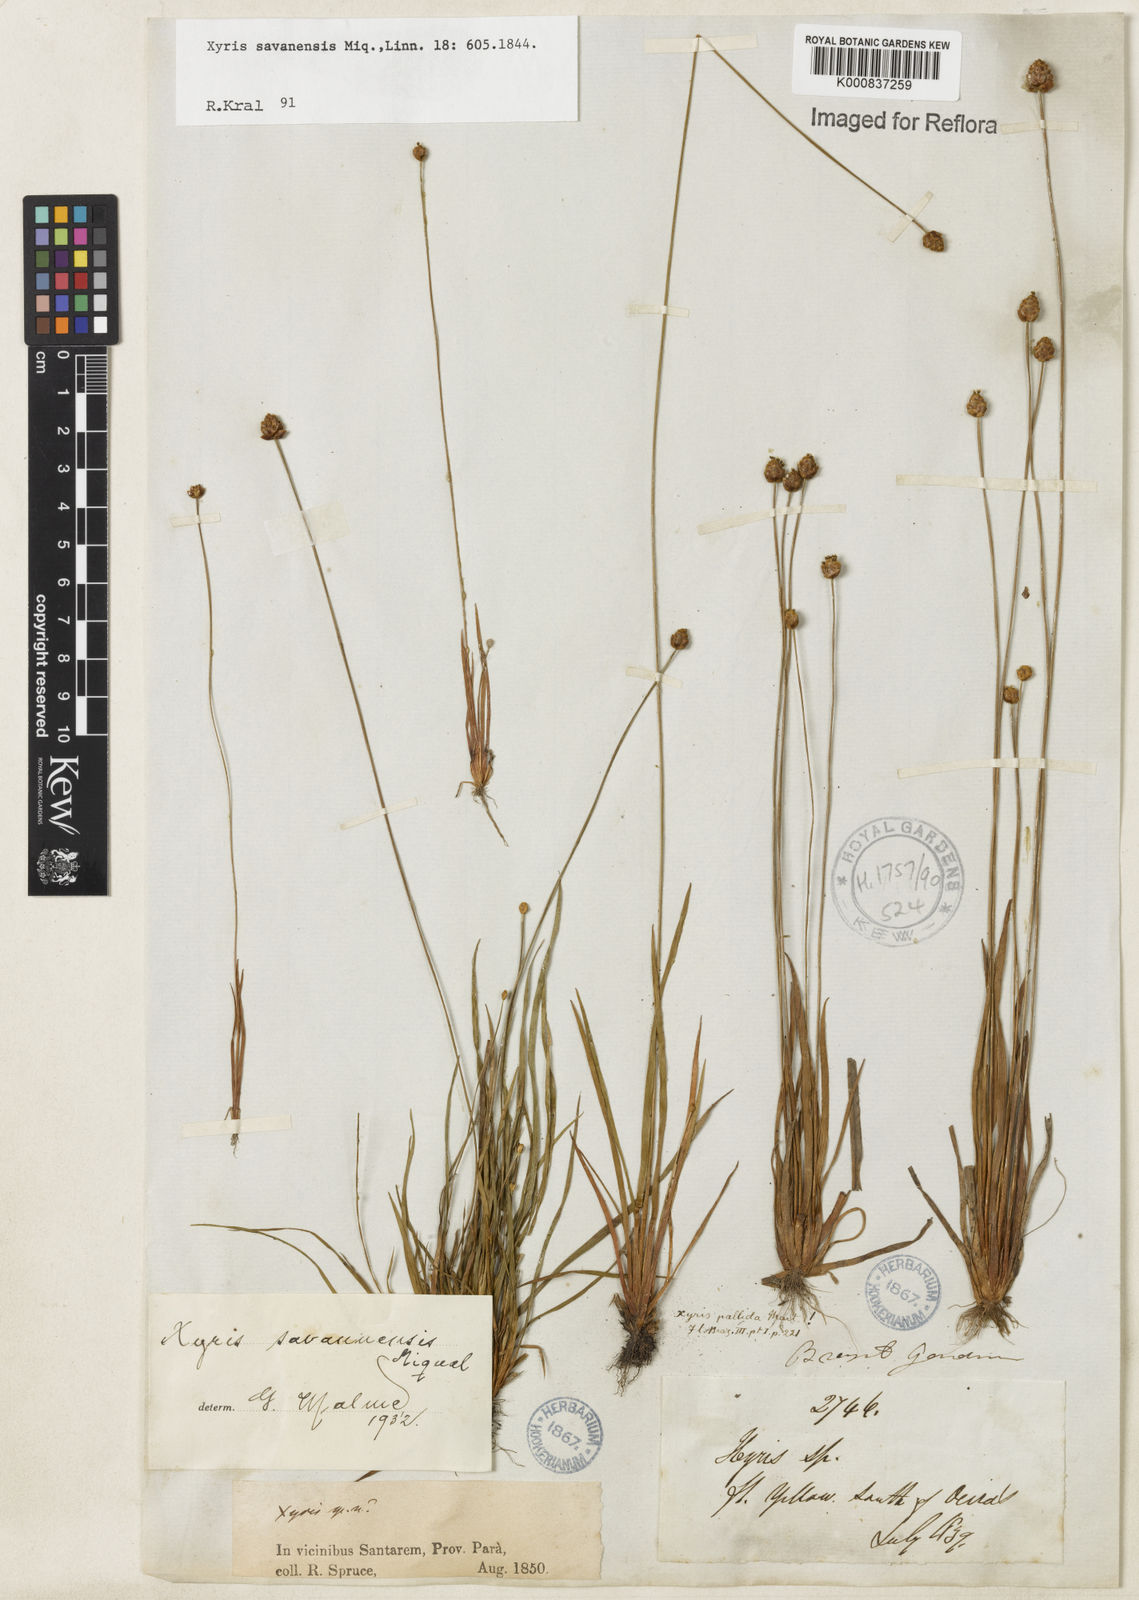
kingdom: Plantae
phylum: Tracheophyta
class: Liliopsida
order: Poales
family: Xyridaceae
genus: Xyris
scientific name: Xyris savanensis
